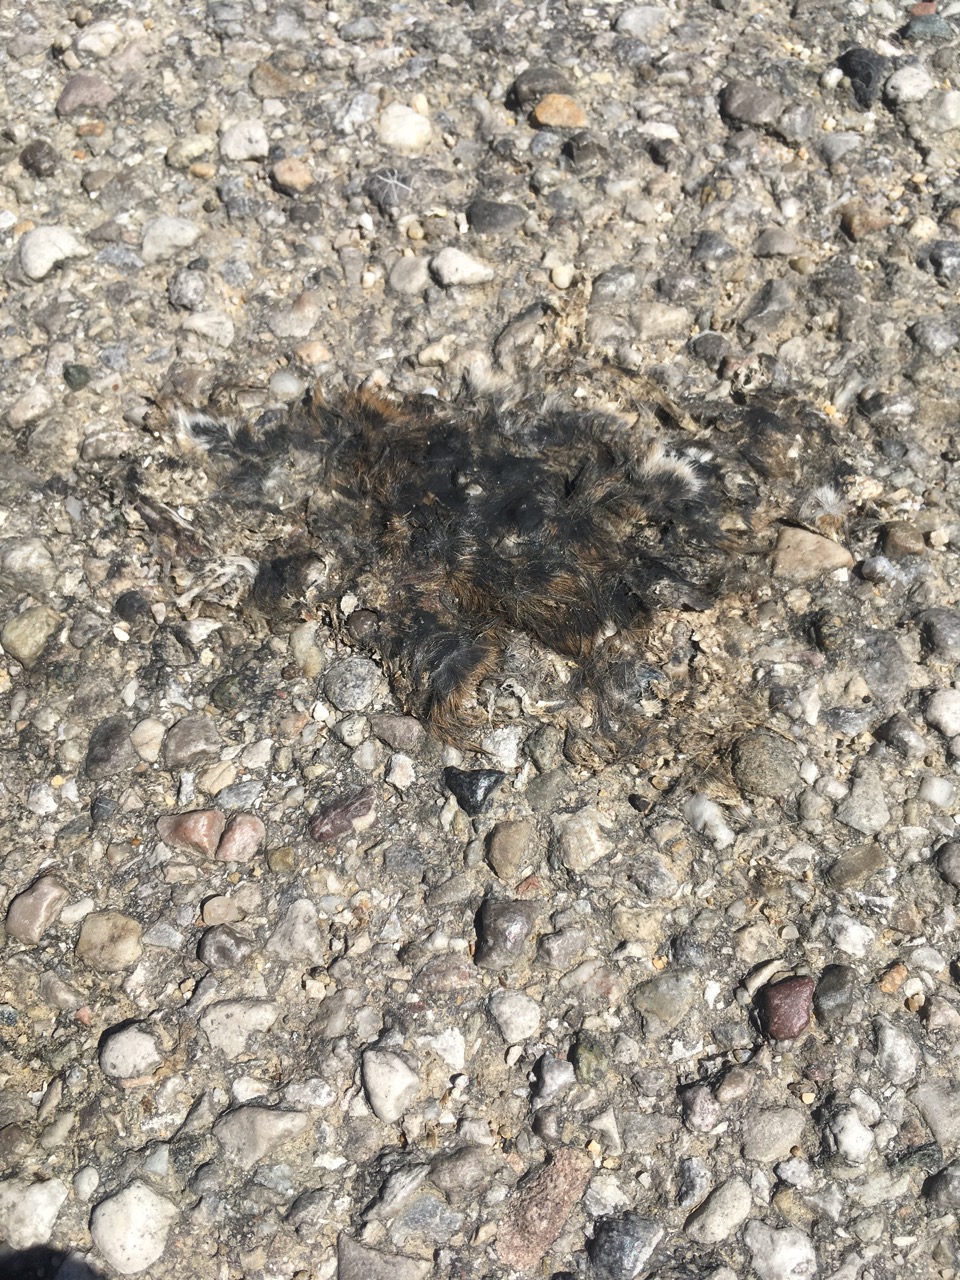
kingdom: Animalia
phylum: Chordata
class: Mammalia
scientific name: Mammalia
